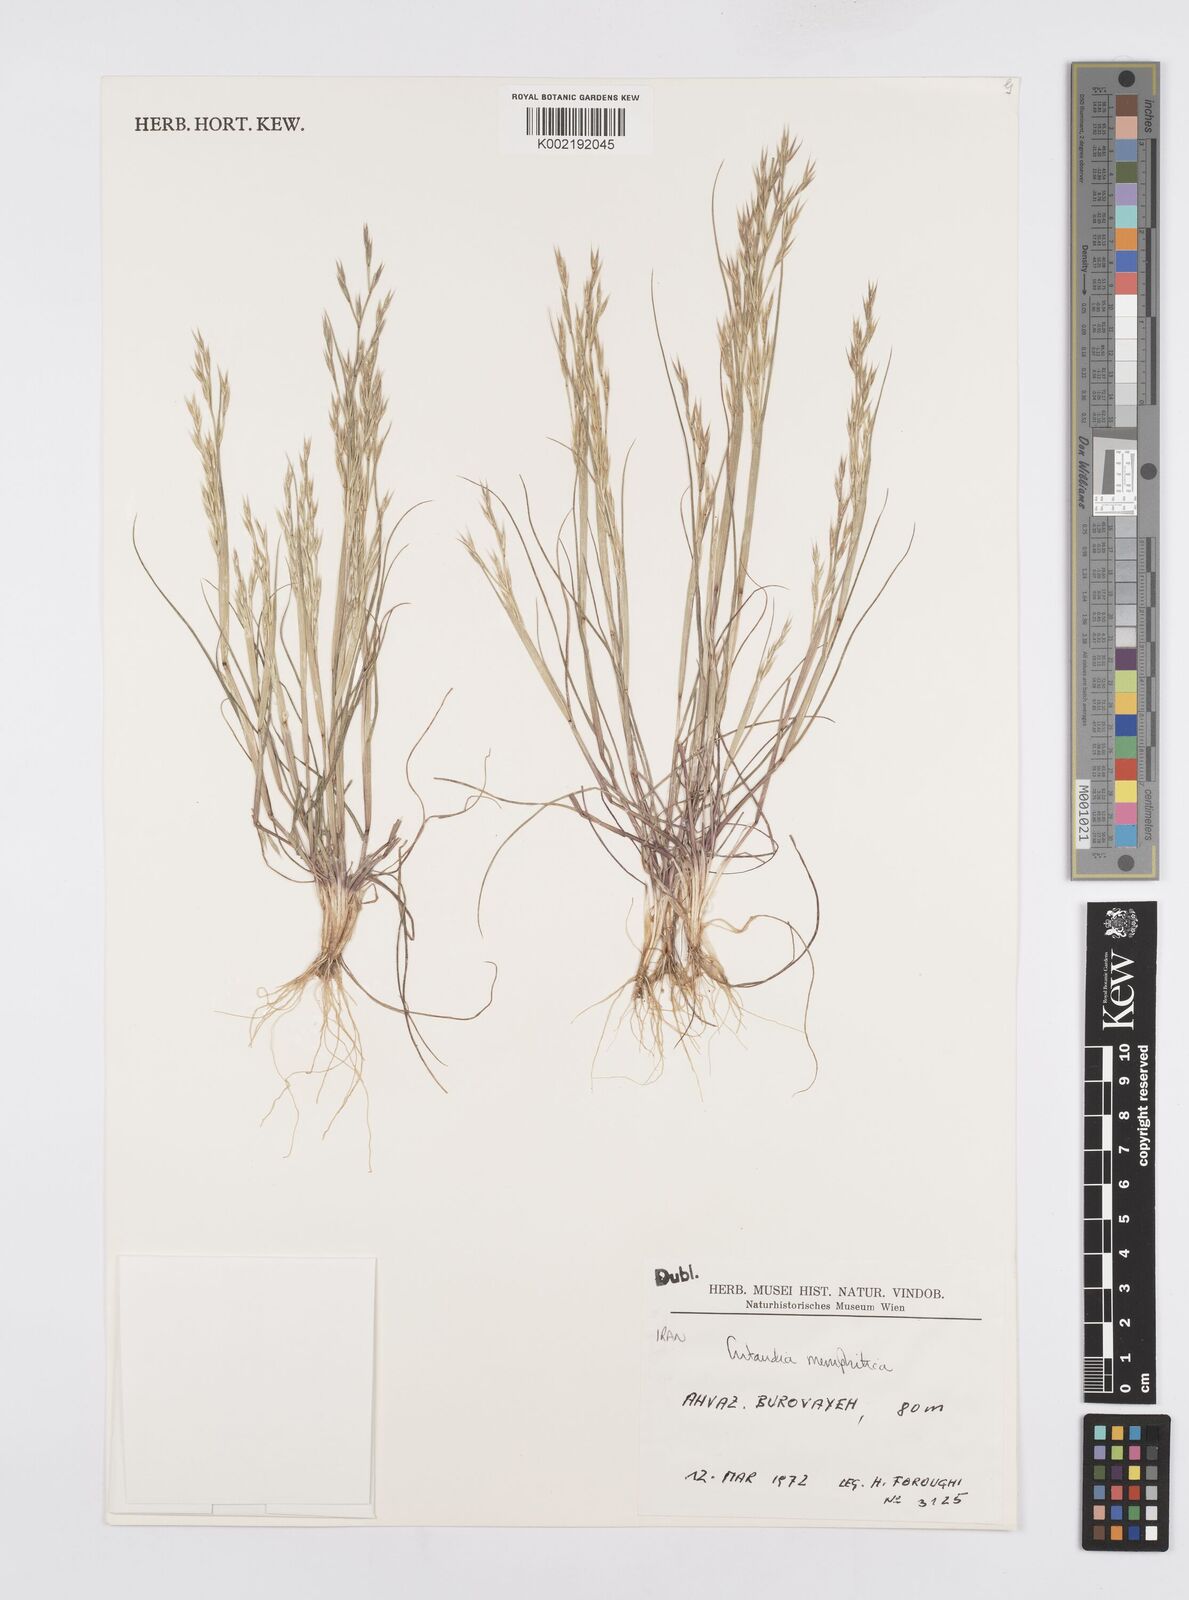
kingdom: Plantae
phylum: Tracheophyta
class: Liliopsida
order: Poales
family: Poaceae
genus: Cutandia
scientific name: Cutandia memphitica
